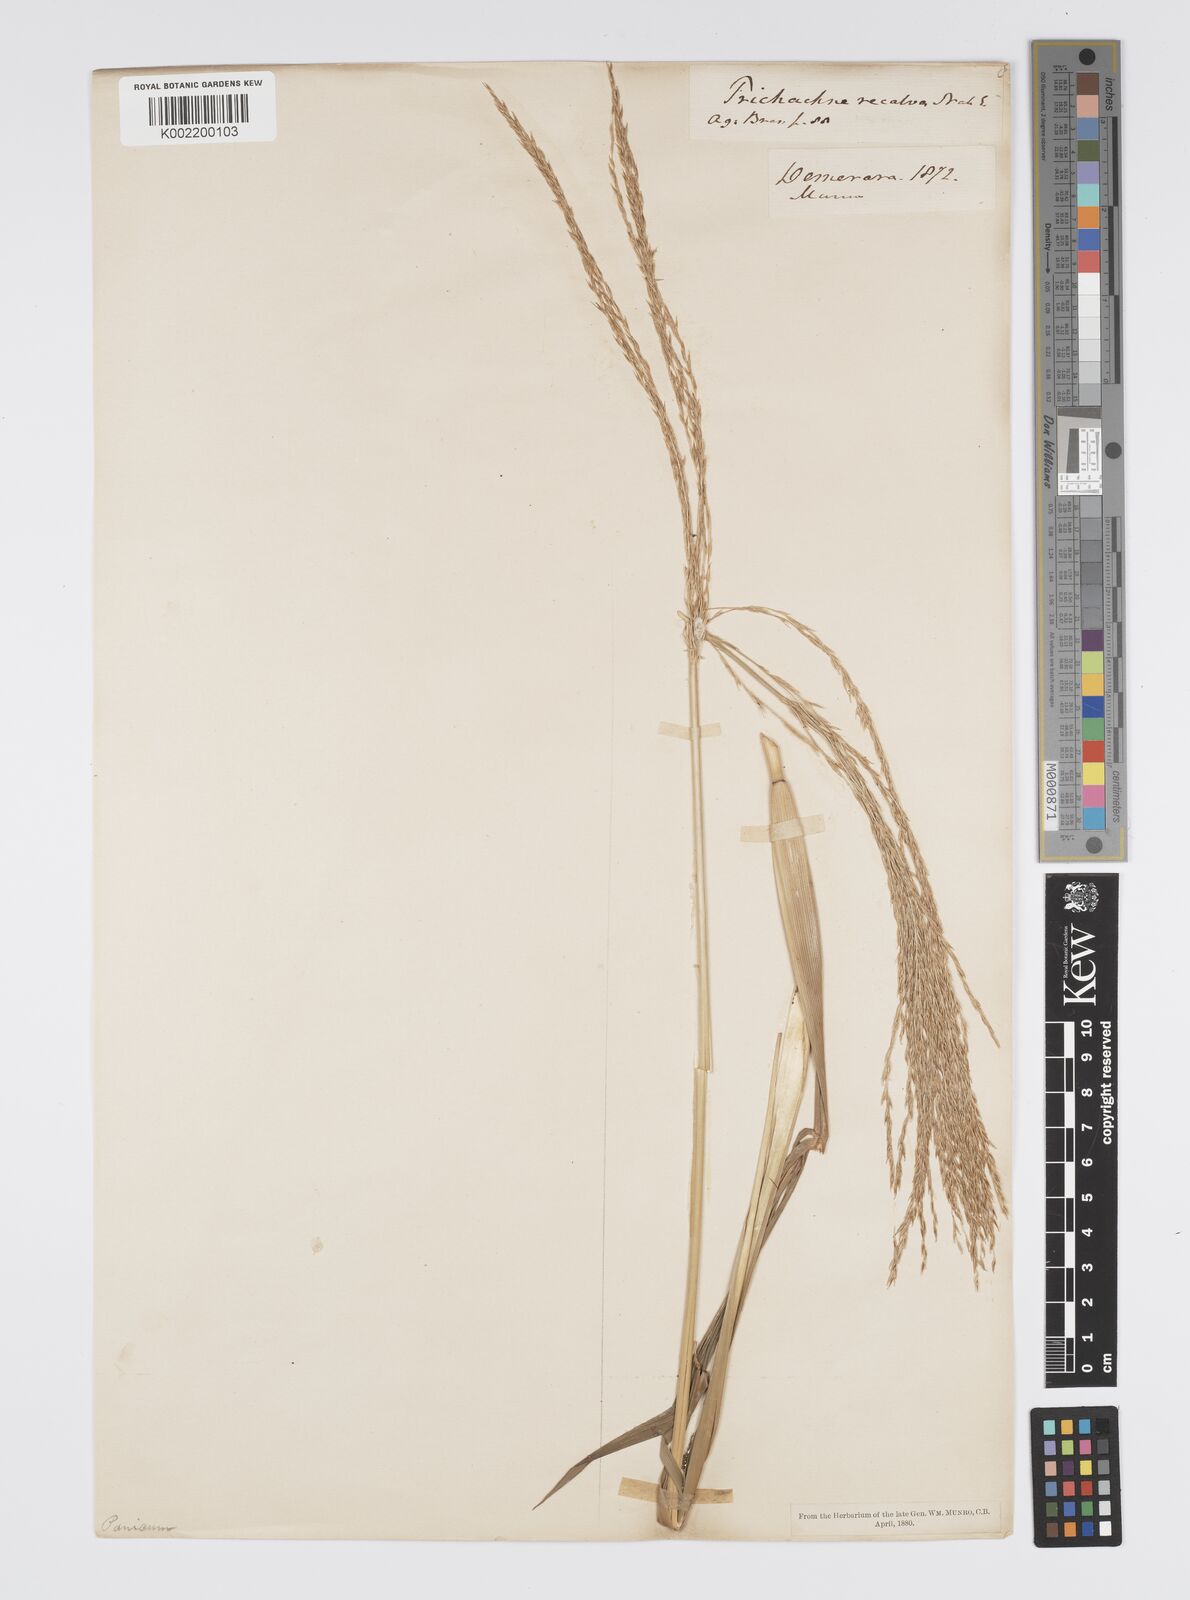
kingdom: Plantae
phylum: Tracheophyta
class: Liliopsida
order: Poales
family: Poaceae
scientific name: Poaceae
